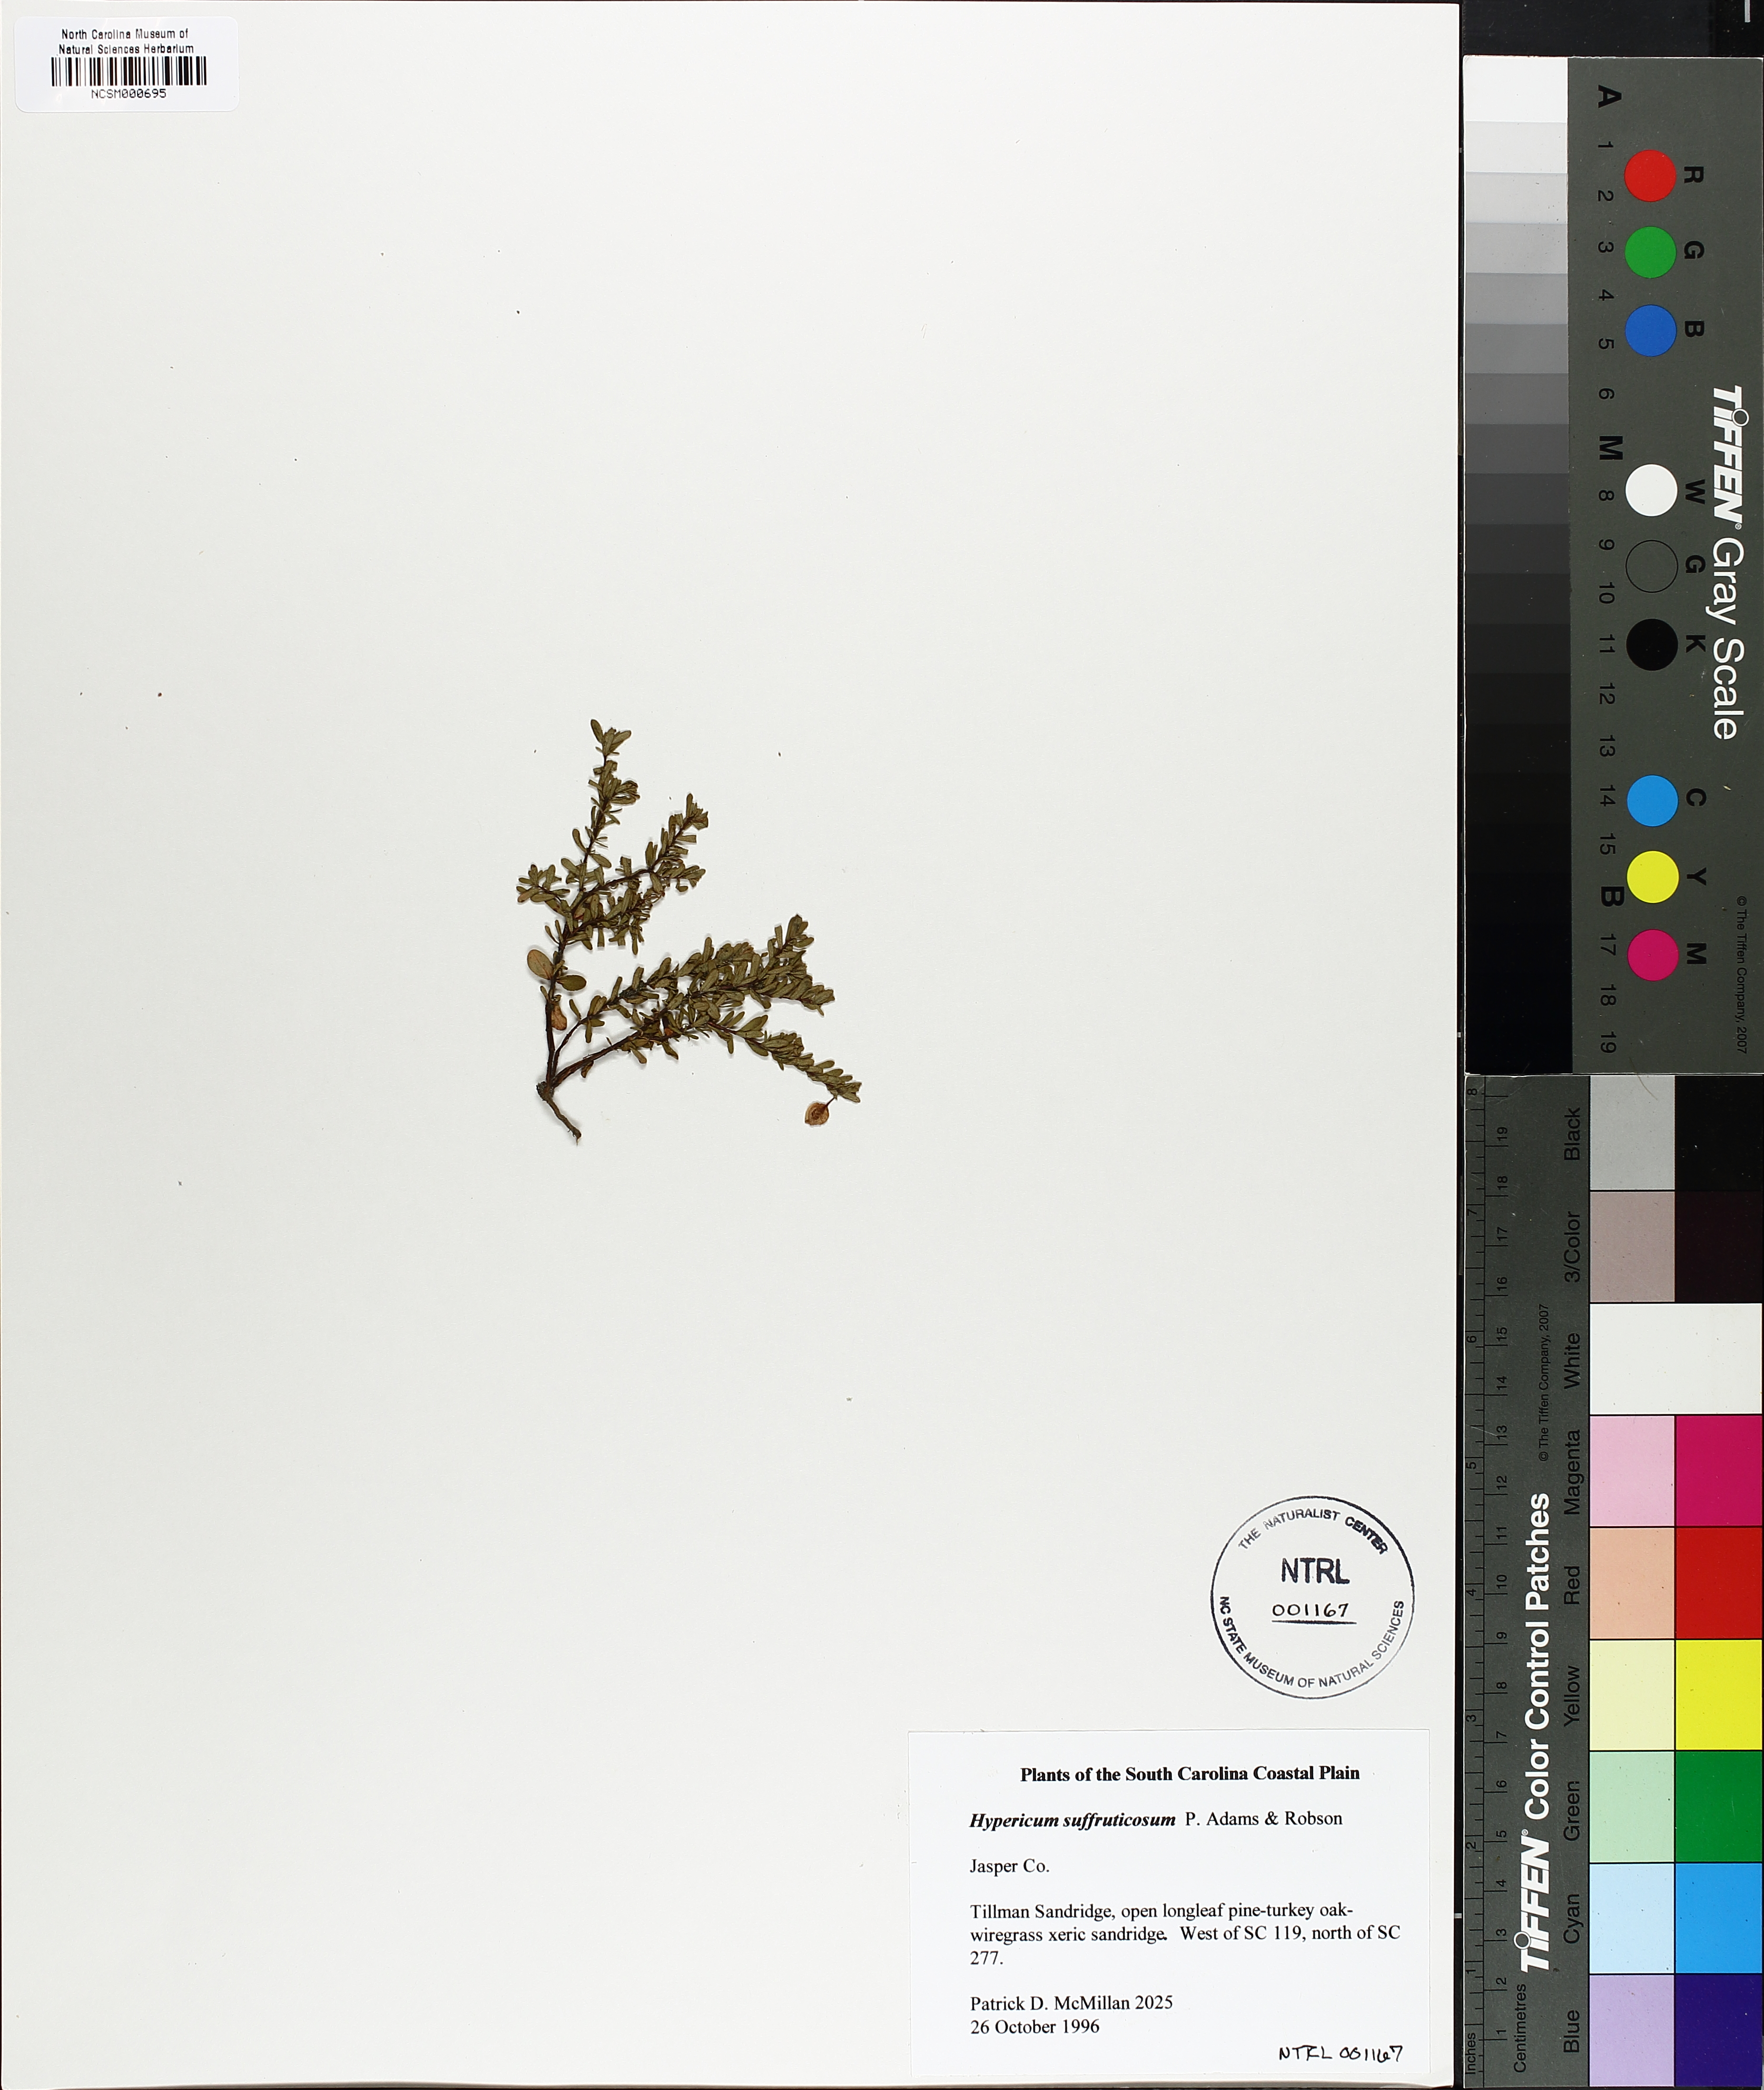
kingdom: Plantae
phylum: Tracheophyta
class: Magnoliopsida
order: Malpighiales
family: Hypericaceae
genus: Hypericum
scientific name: Hypericum suffruticosum
